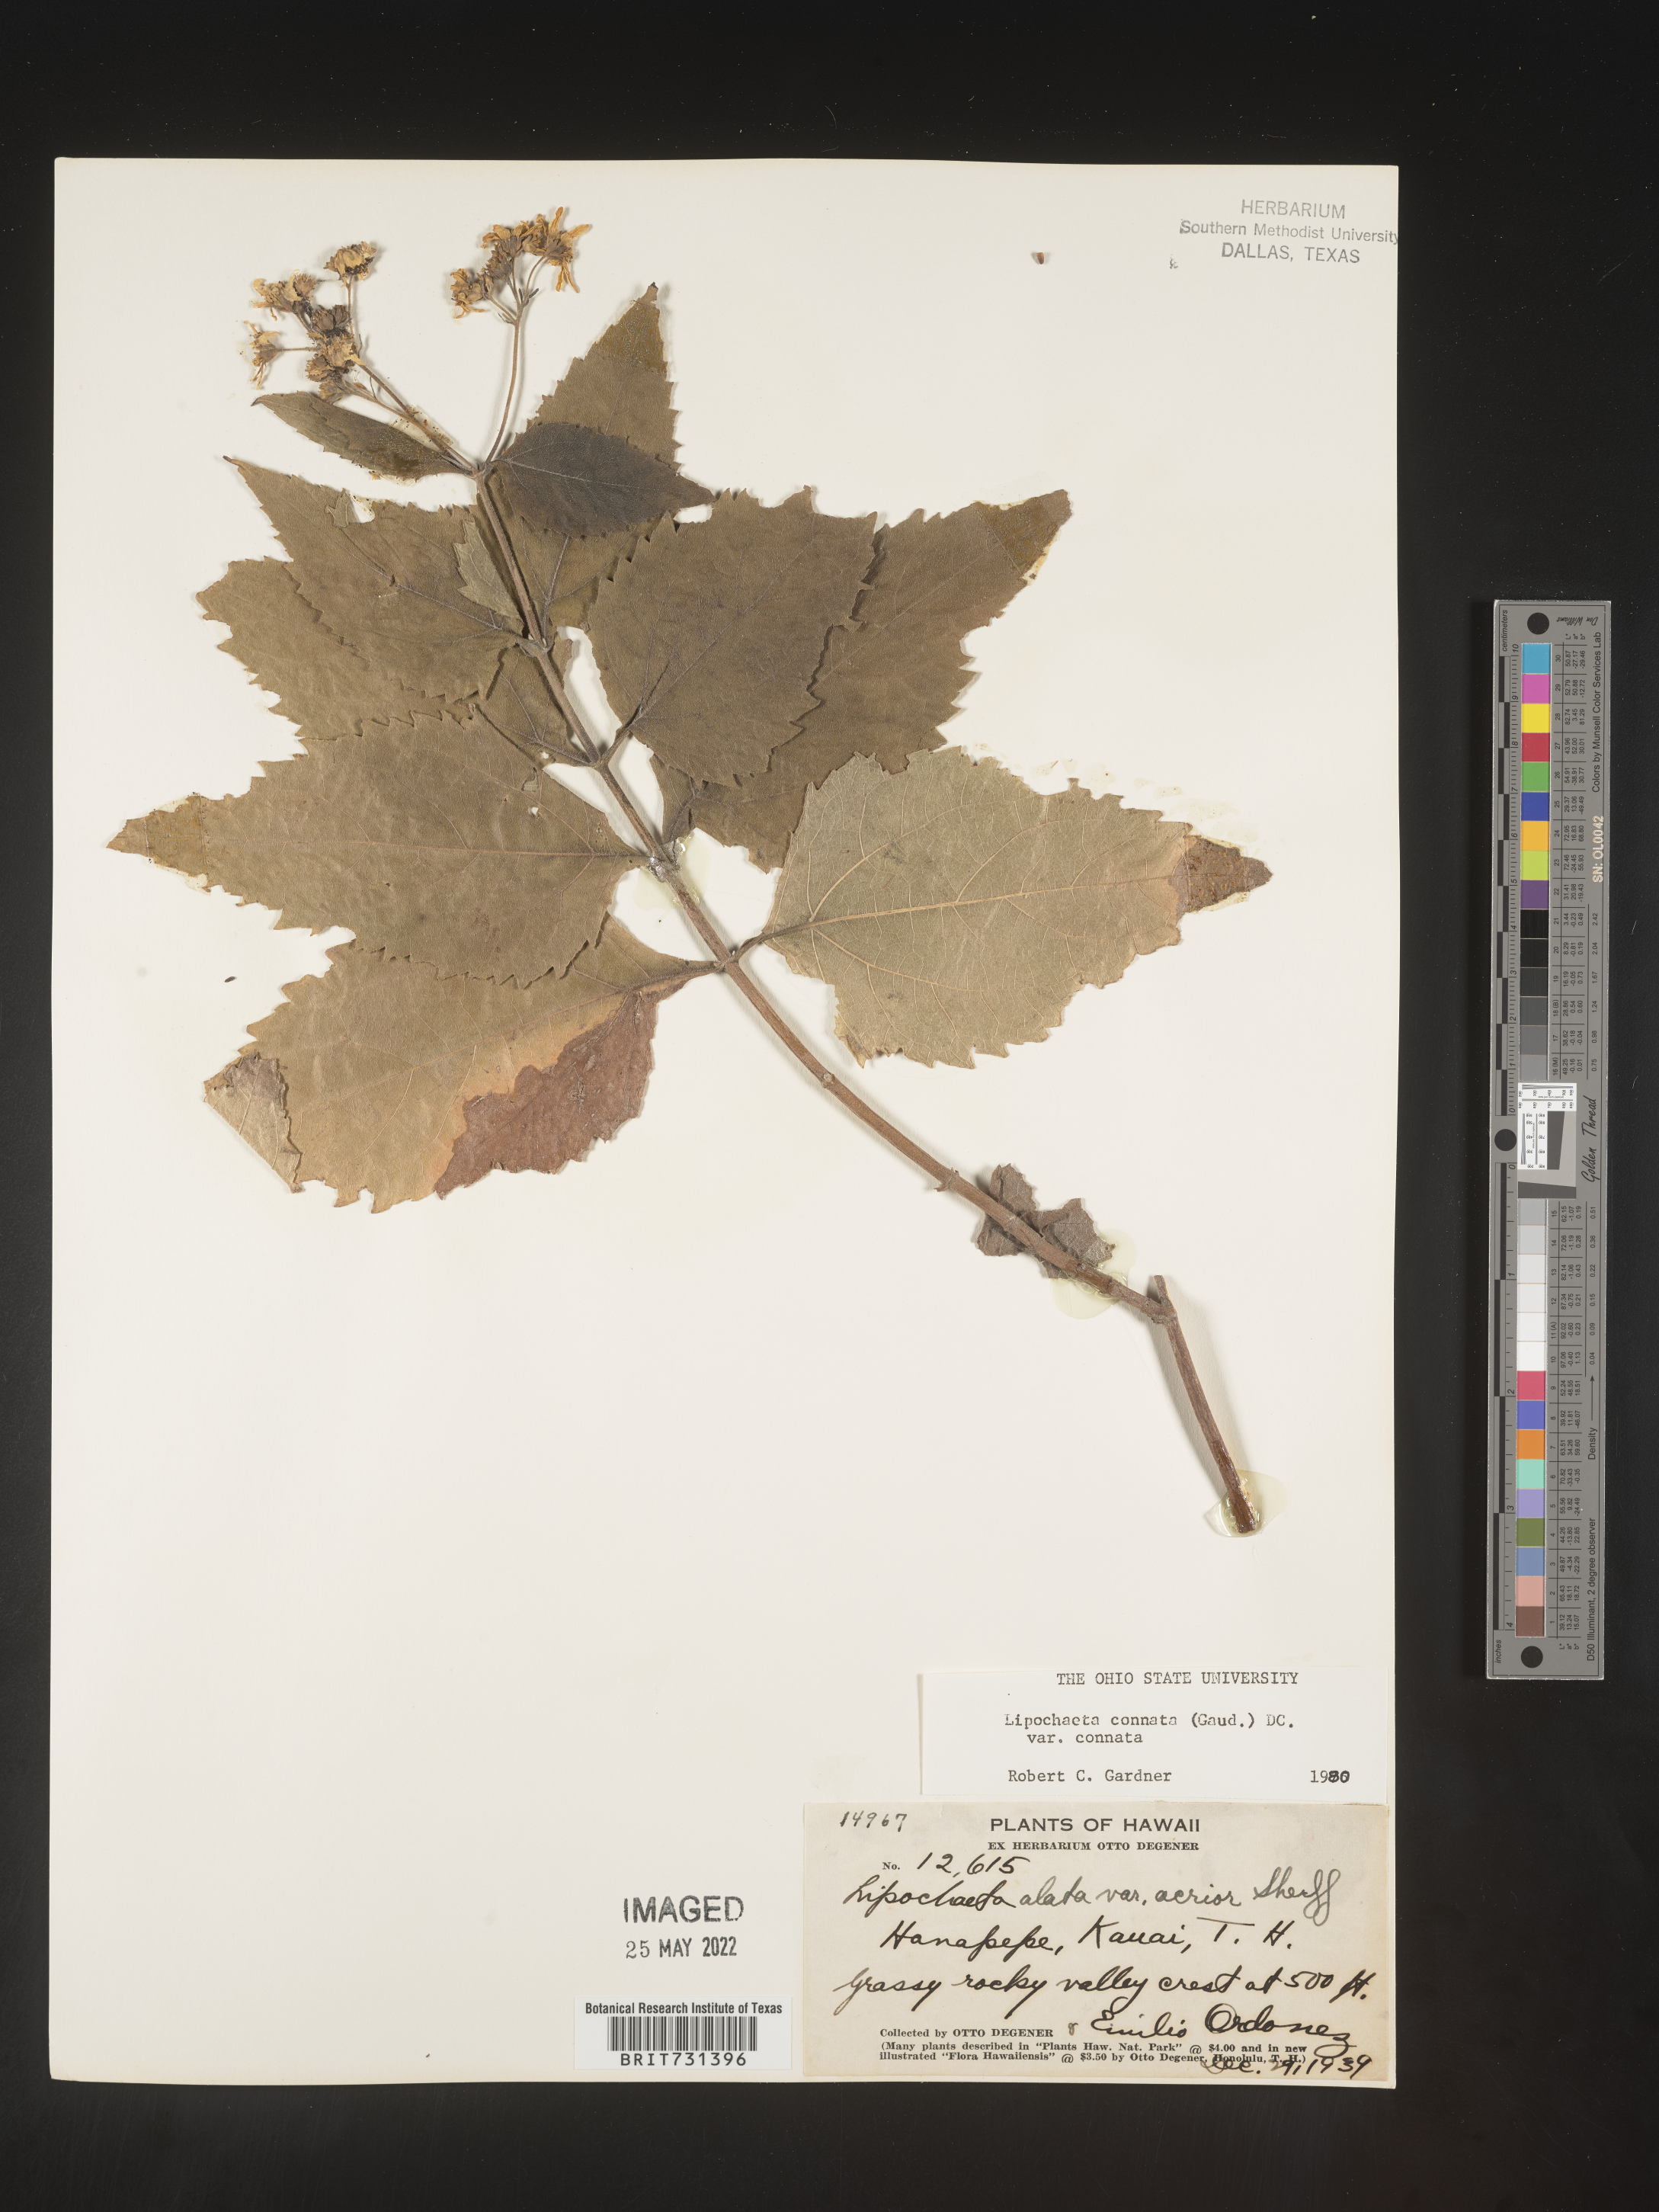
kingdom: Plantae
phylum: Tracheophyta
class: Magnoliopsida
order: Asterales
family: Asteraceae
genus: Lipochaeta
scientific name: Lipochaeta
